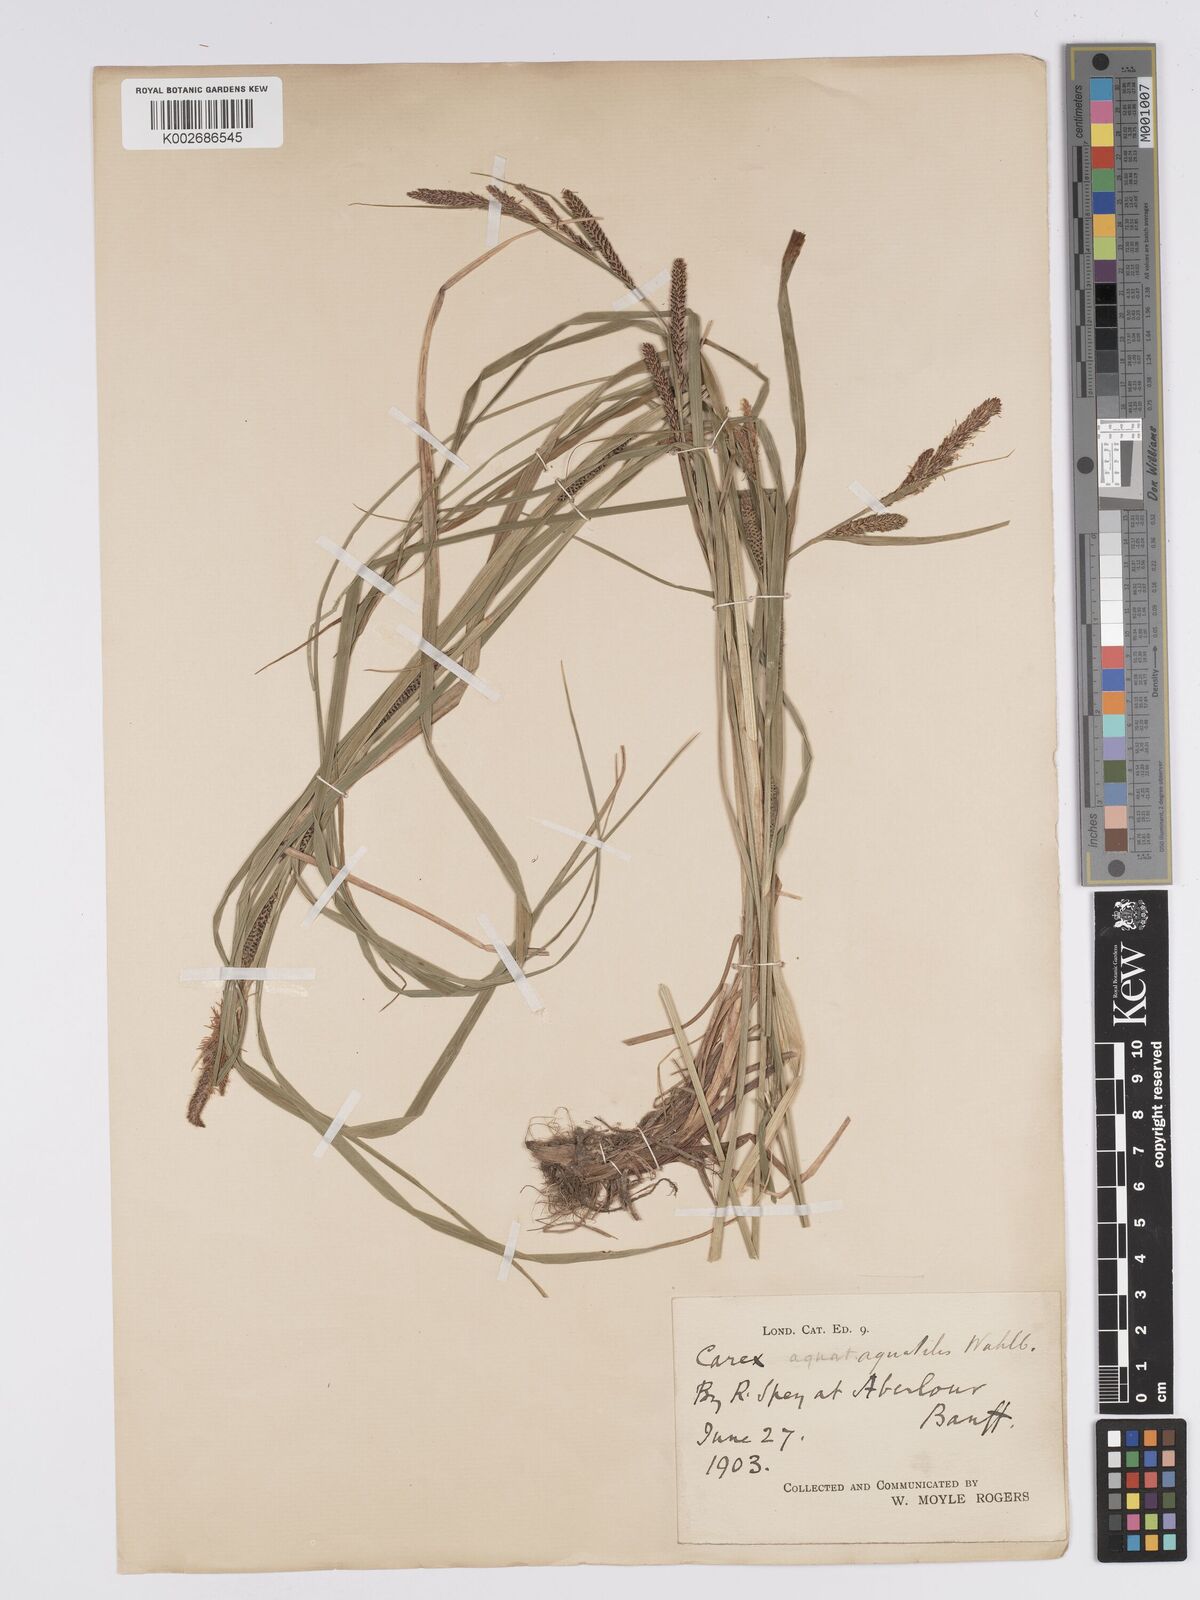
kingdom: Plantae
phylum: Tracheophyta
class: Liliopsida
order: Poales
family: Cyperaceae
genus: Carex
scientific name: Carex aquatilis
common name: Water sedge
